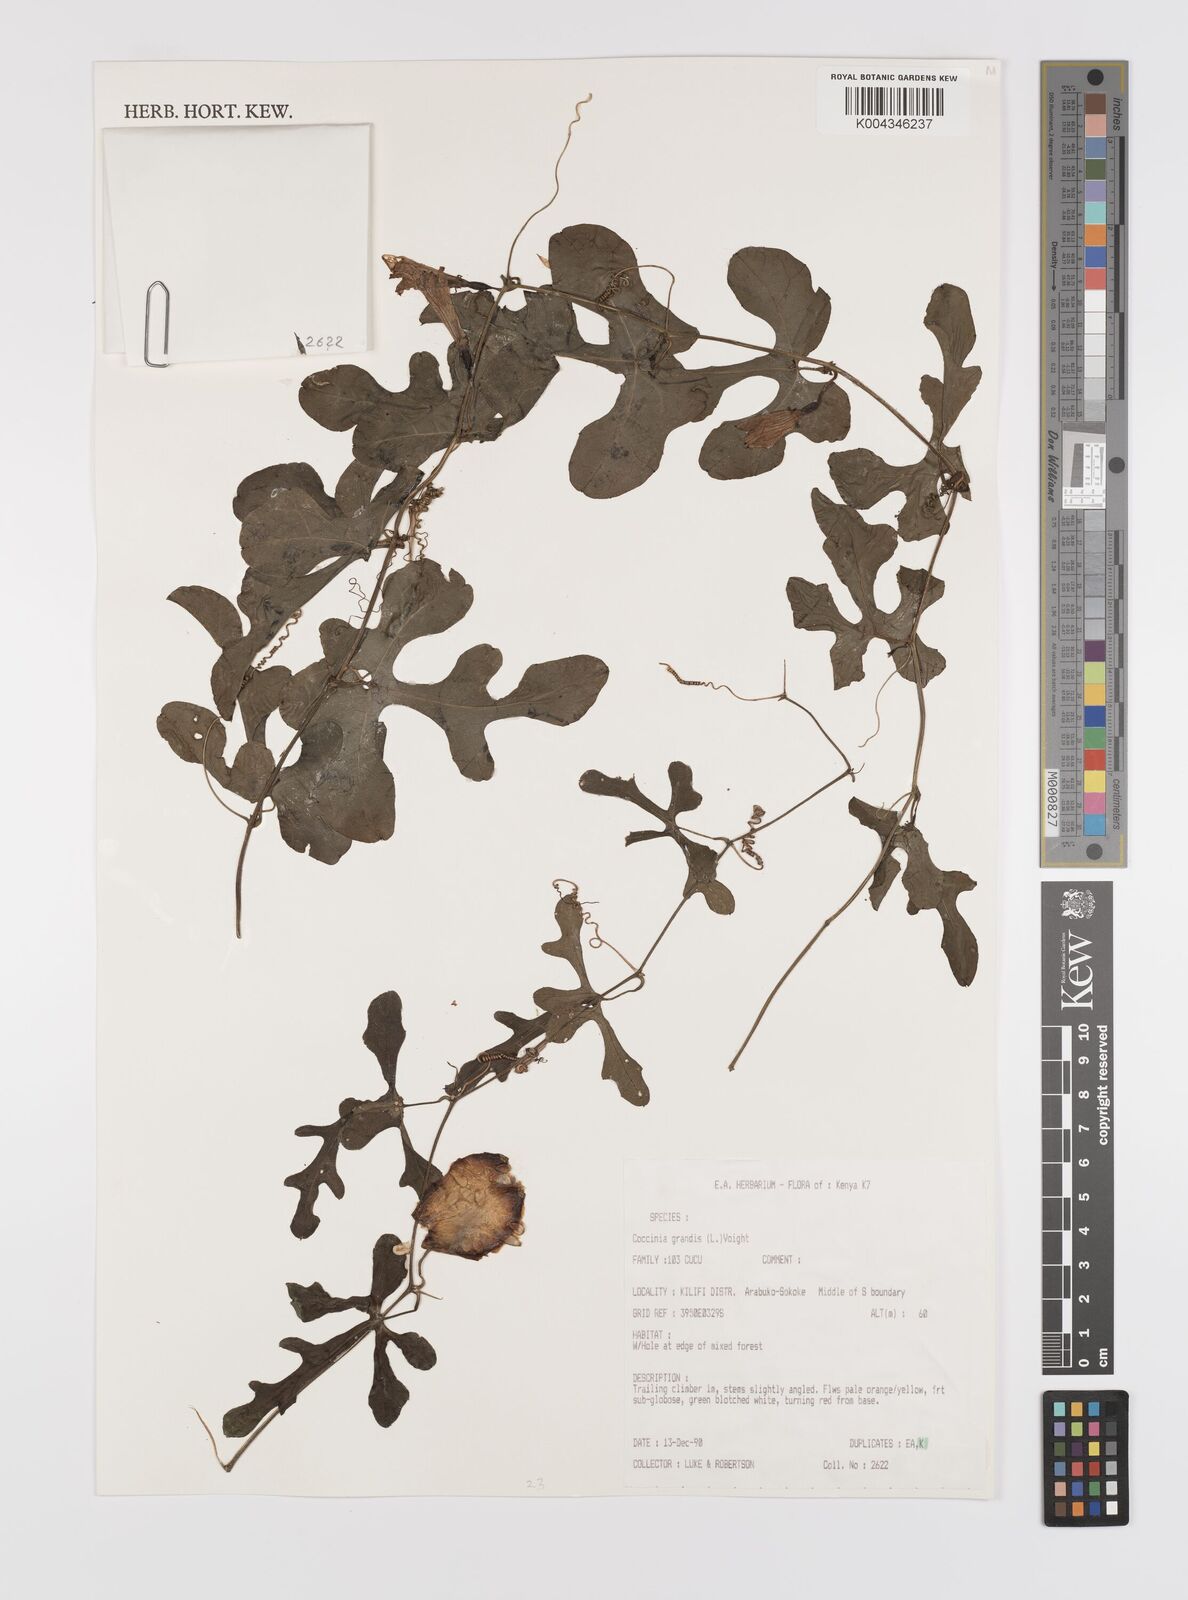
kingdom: Plantae
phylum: Tracheophyta
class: Magnoliopsida
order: Cucurbitales
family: Cucurbitaceae
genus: Coccinia
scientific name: Coccinia grandis
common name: Ivy gourd
